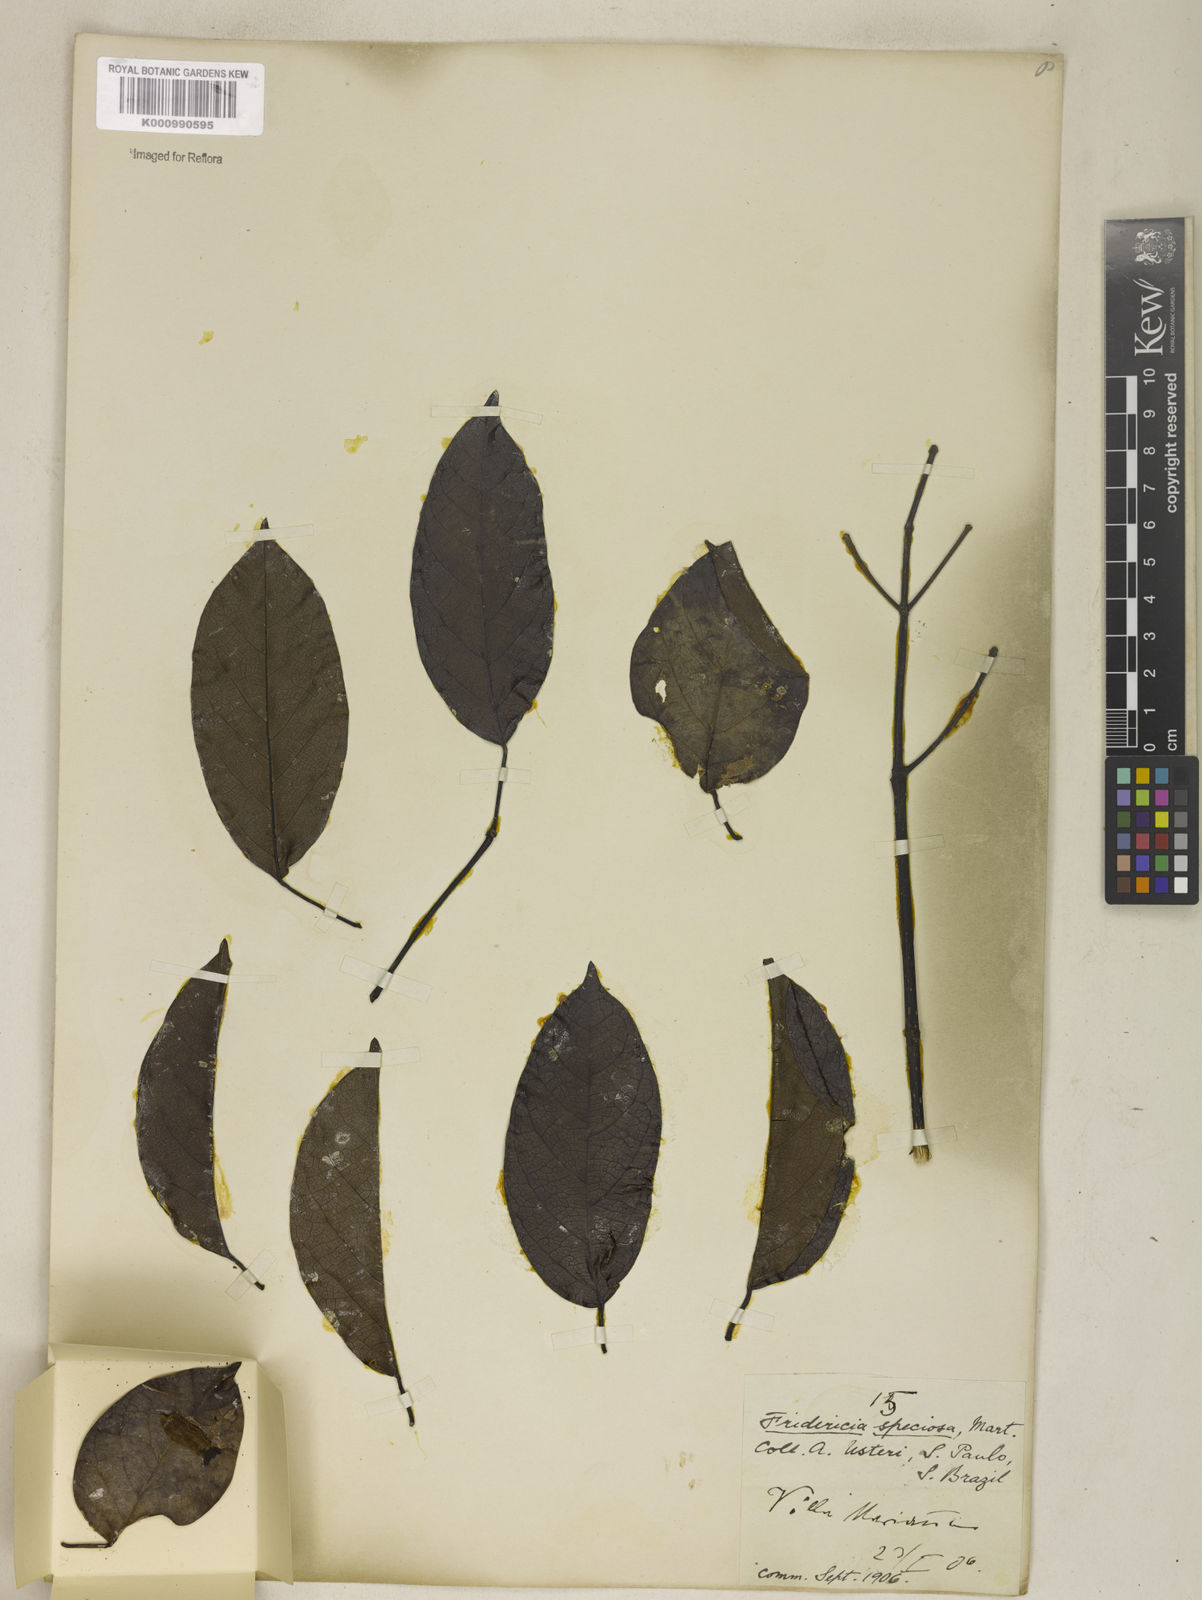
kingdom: Plantae
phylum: Tracheophyta
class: Magnoliopsida
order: Lamiales
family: Bignoniaceae
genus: Fridericia
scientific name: Fridericia speciosa
